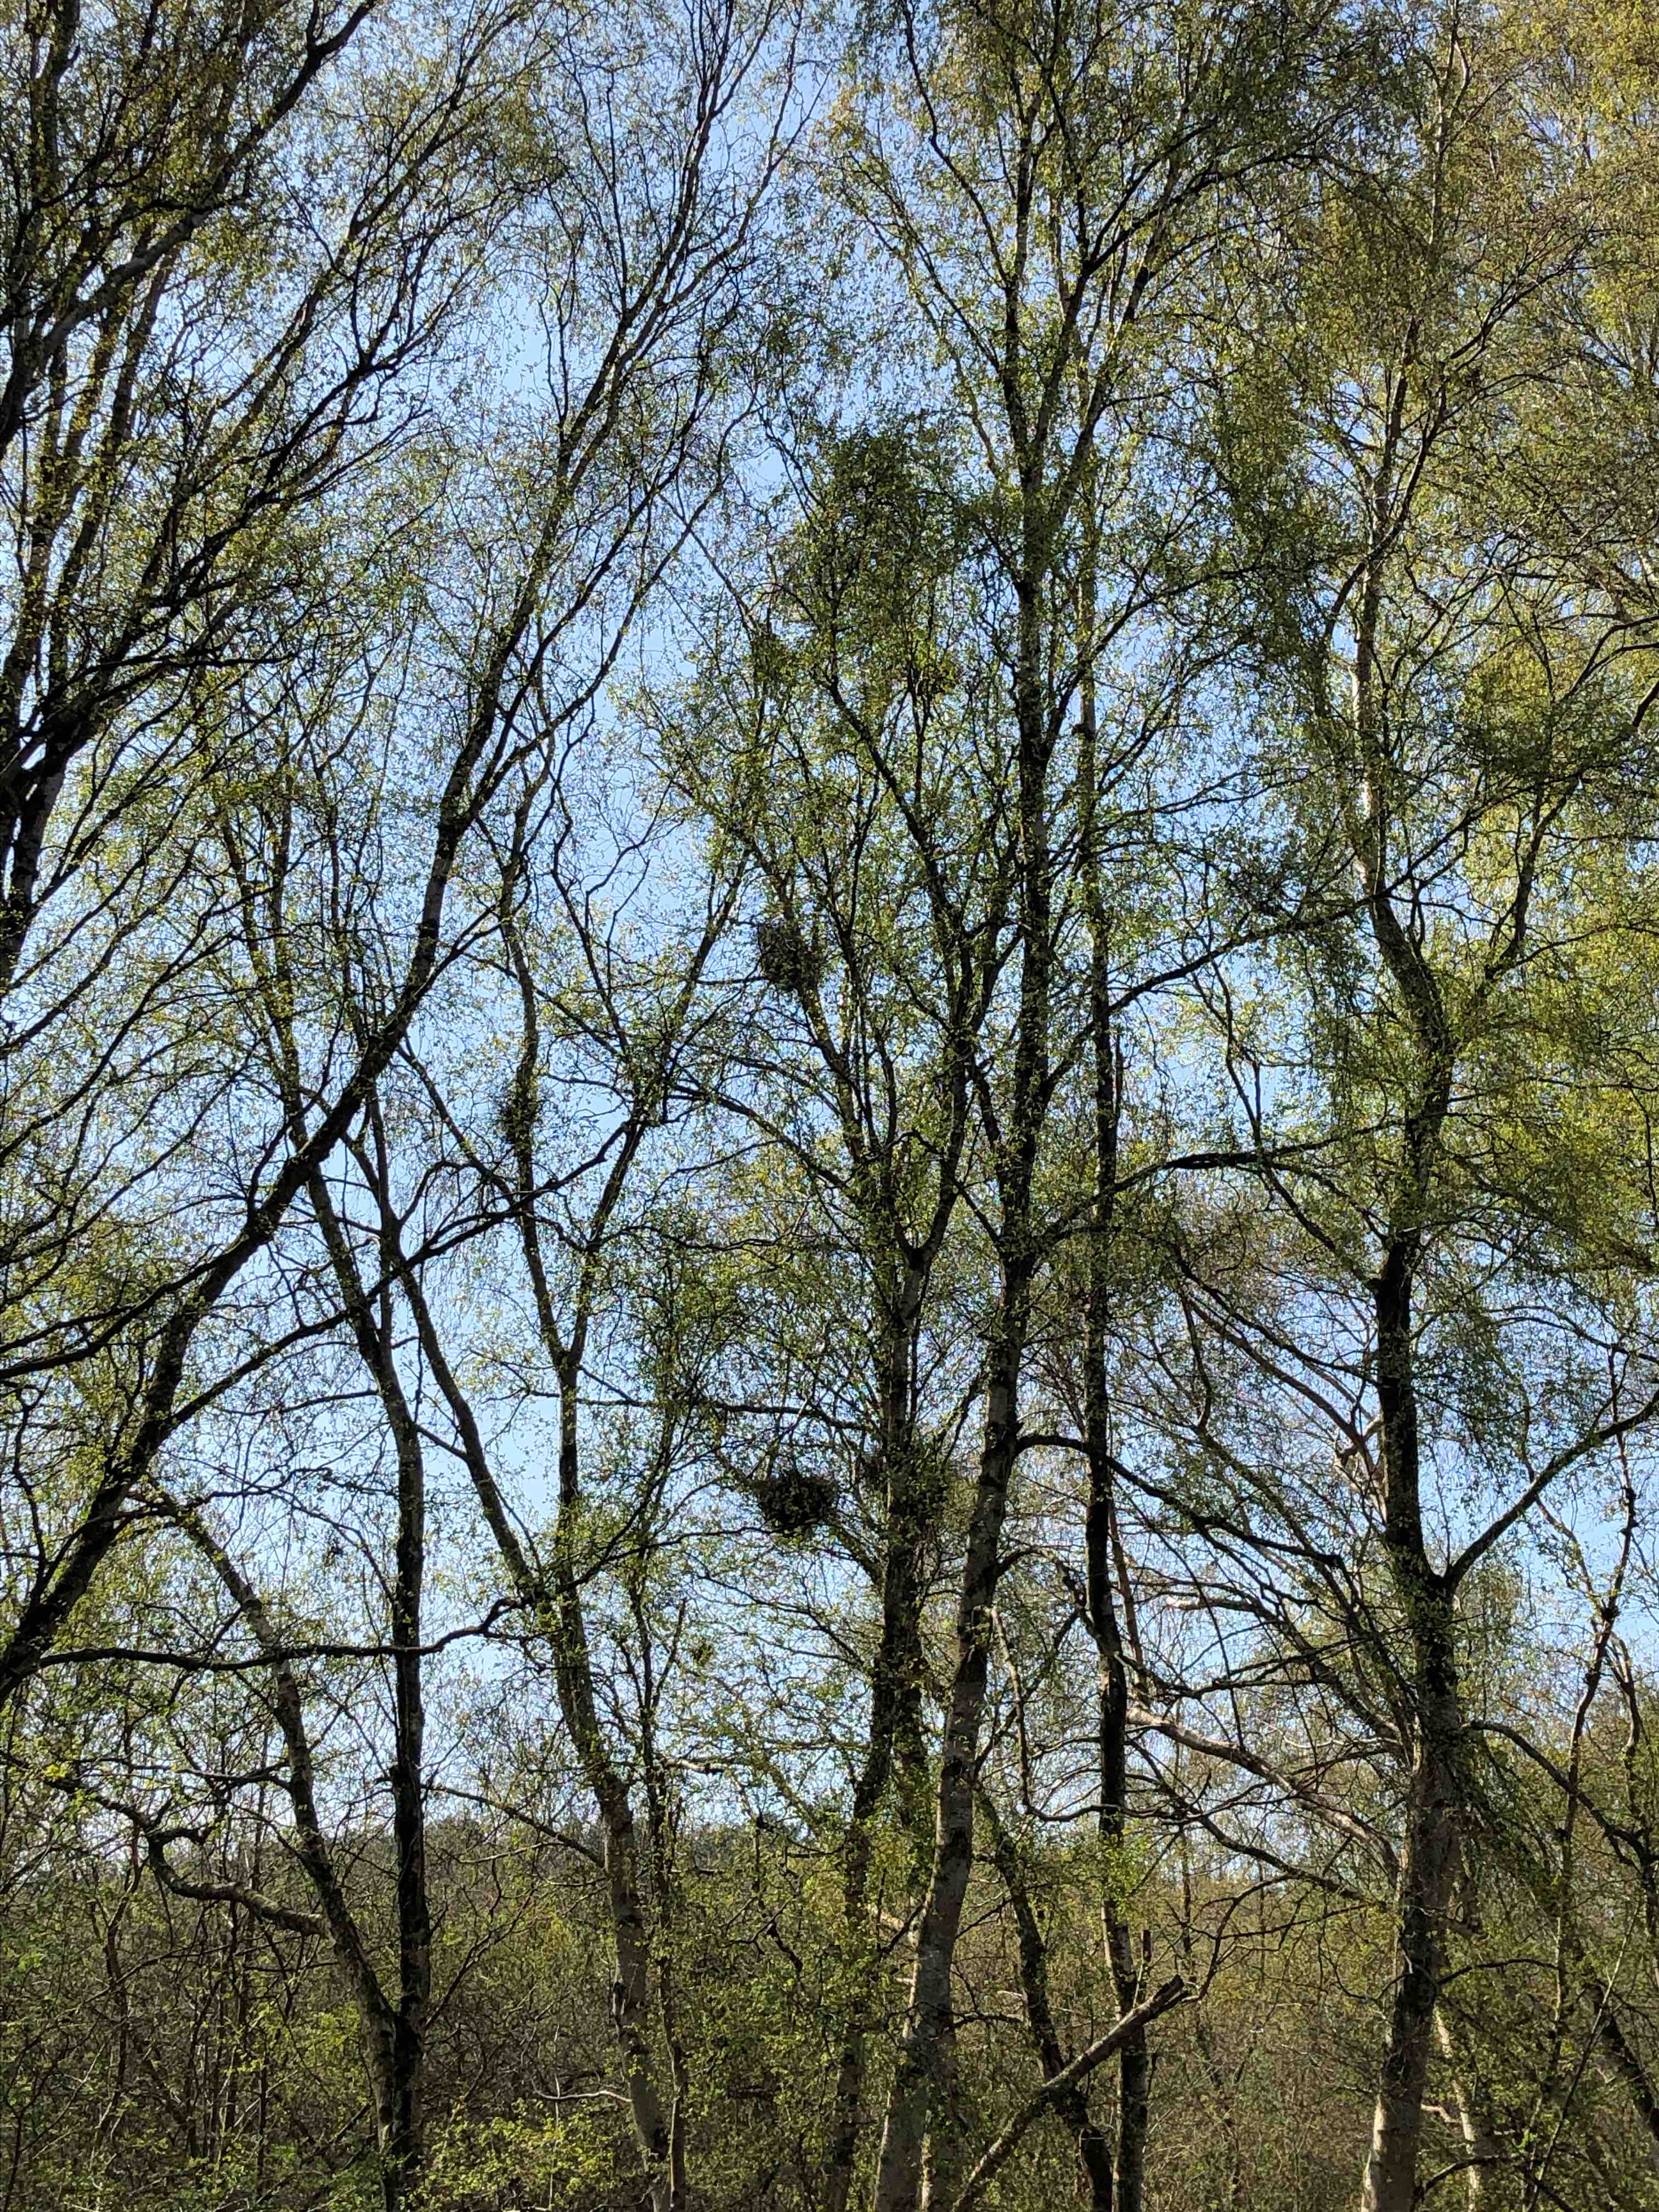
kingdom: Fungi
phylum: Ascomycota
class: Taphrinomycetes
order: Taphrinales
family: Taphrinaceae
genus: Taphrina
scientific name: Taphrina betulina
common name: hekse-sækdug
